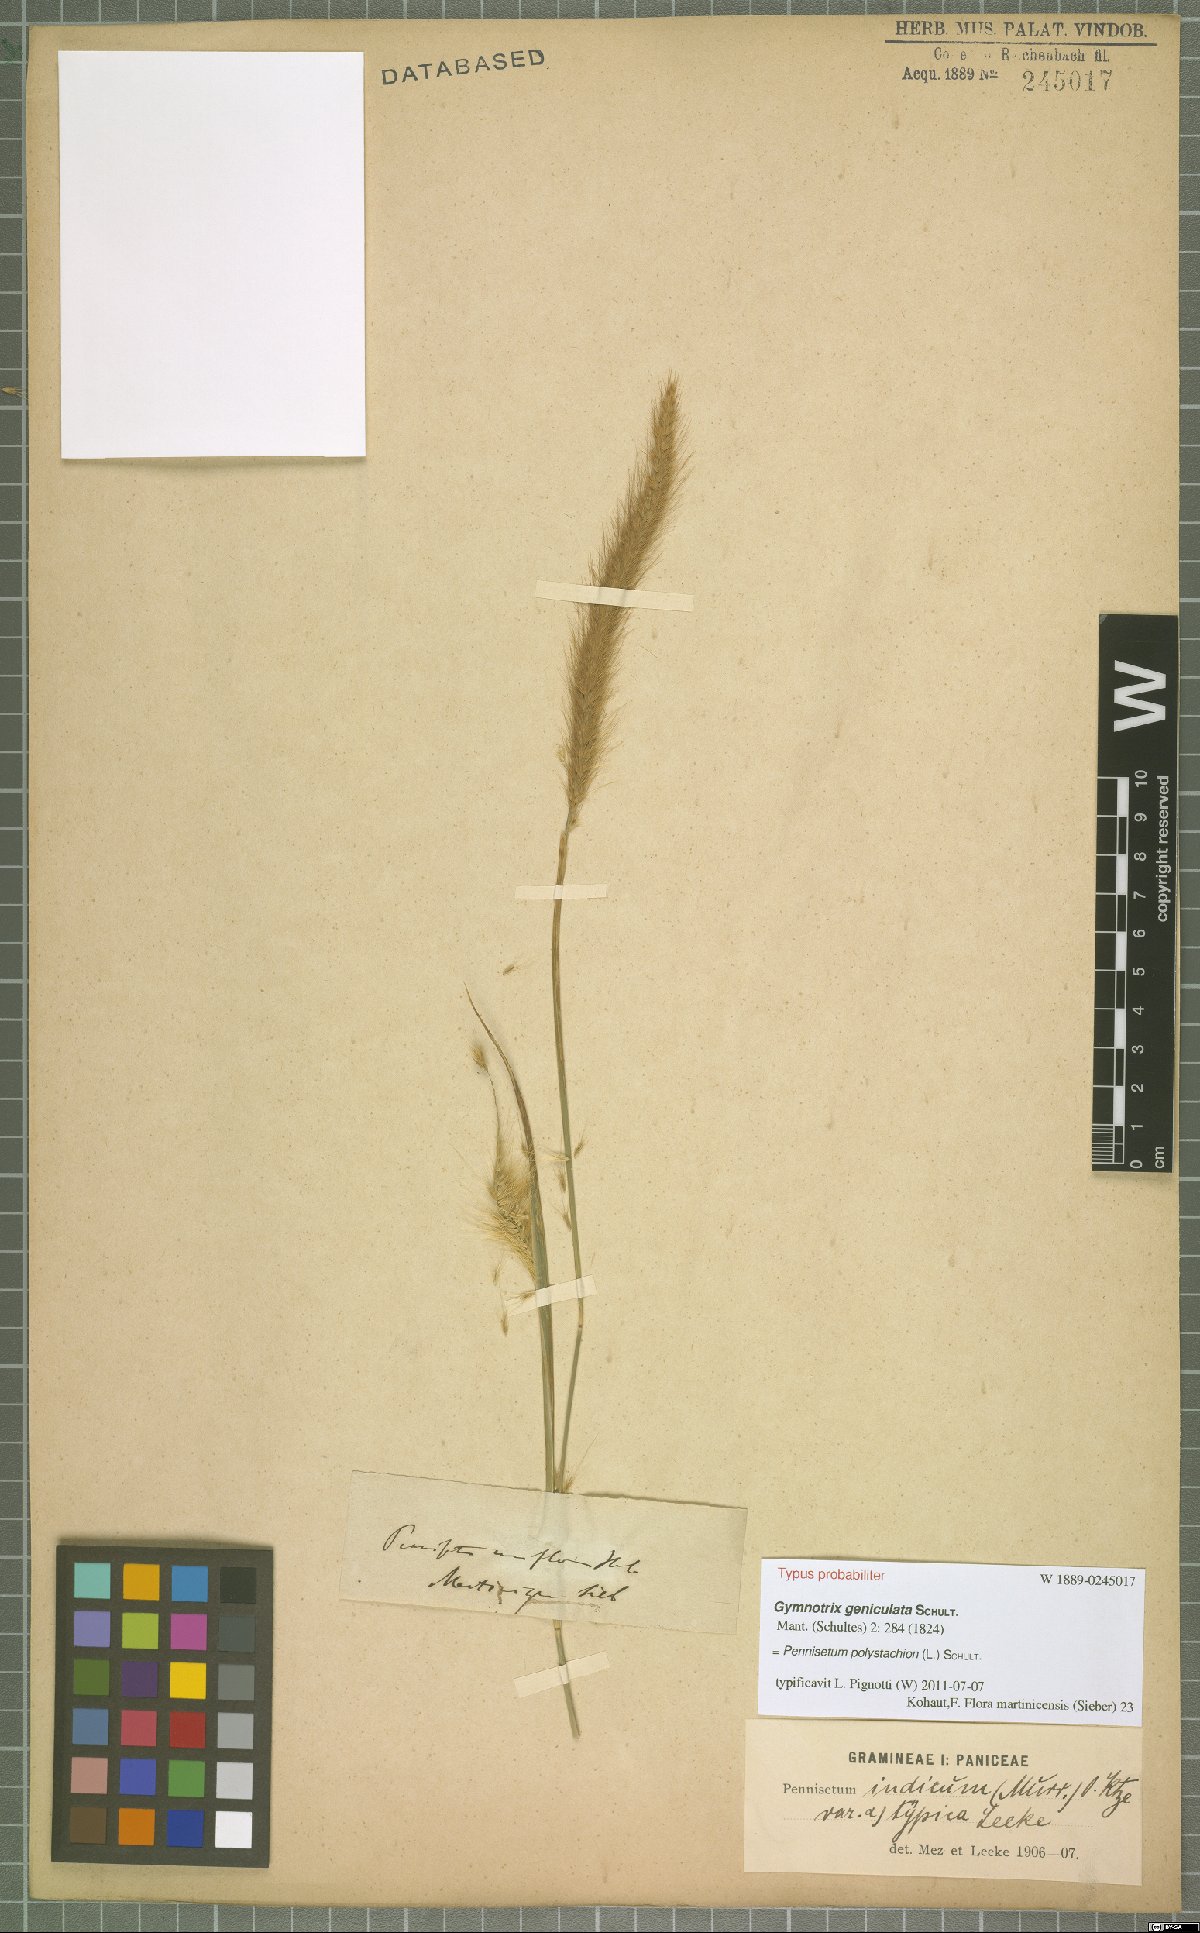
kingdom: Plantae
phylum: Tracheophyta
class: Liliopsida
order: Poales
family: Poaceae
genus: Setaria
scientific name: Setaria parviflora
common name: Knotroot bristle-grass
